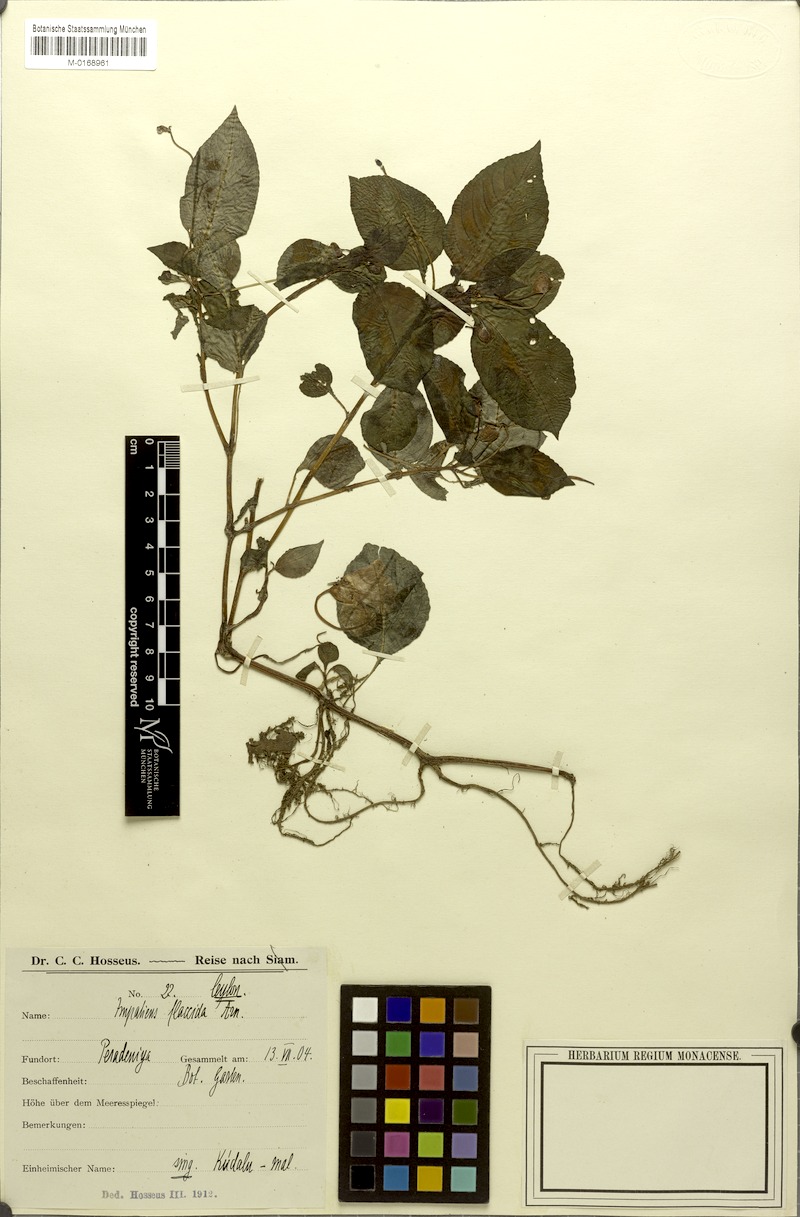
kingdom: Plantae
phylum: Tracheophyta
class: Magnoliopsida
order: Ericales
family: Balsaminaceae
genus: Impatiens
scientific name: Impatiens flaccida
